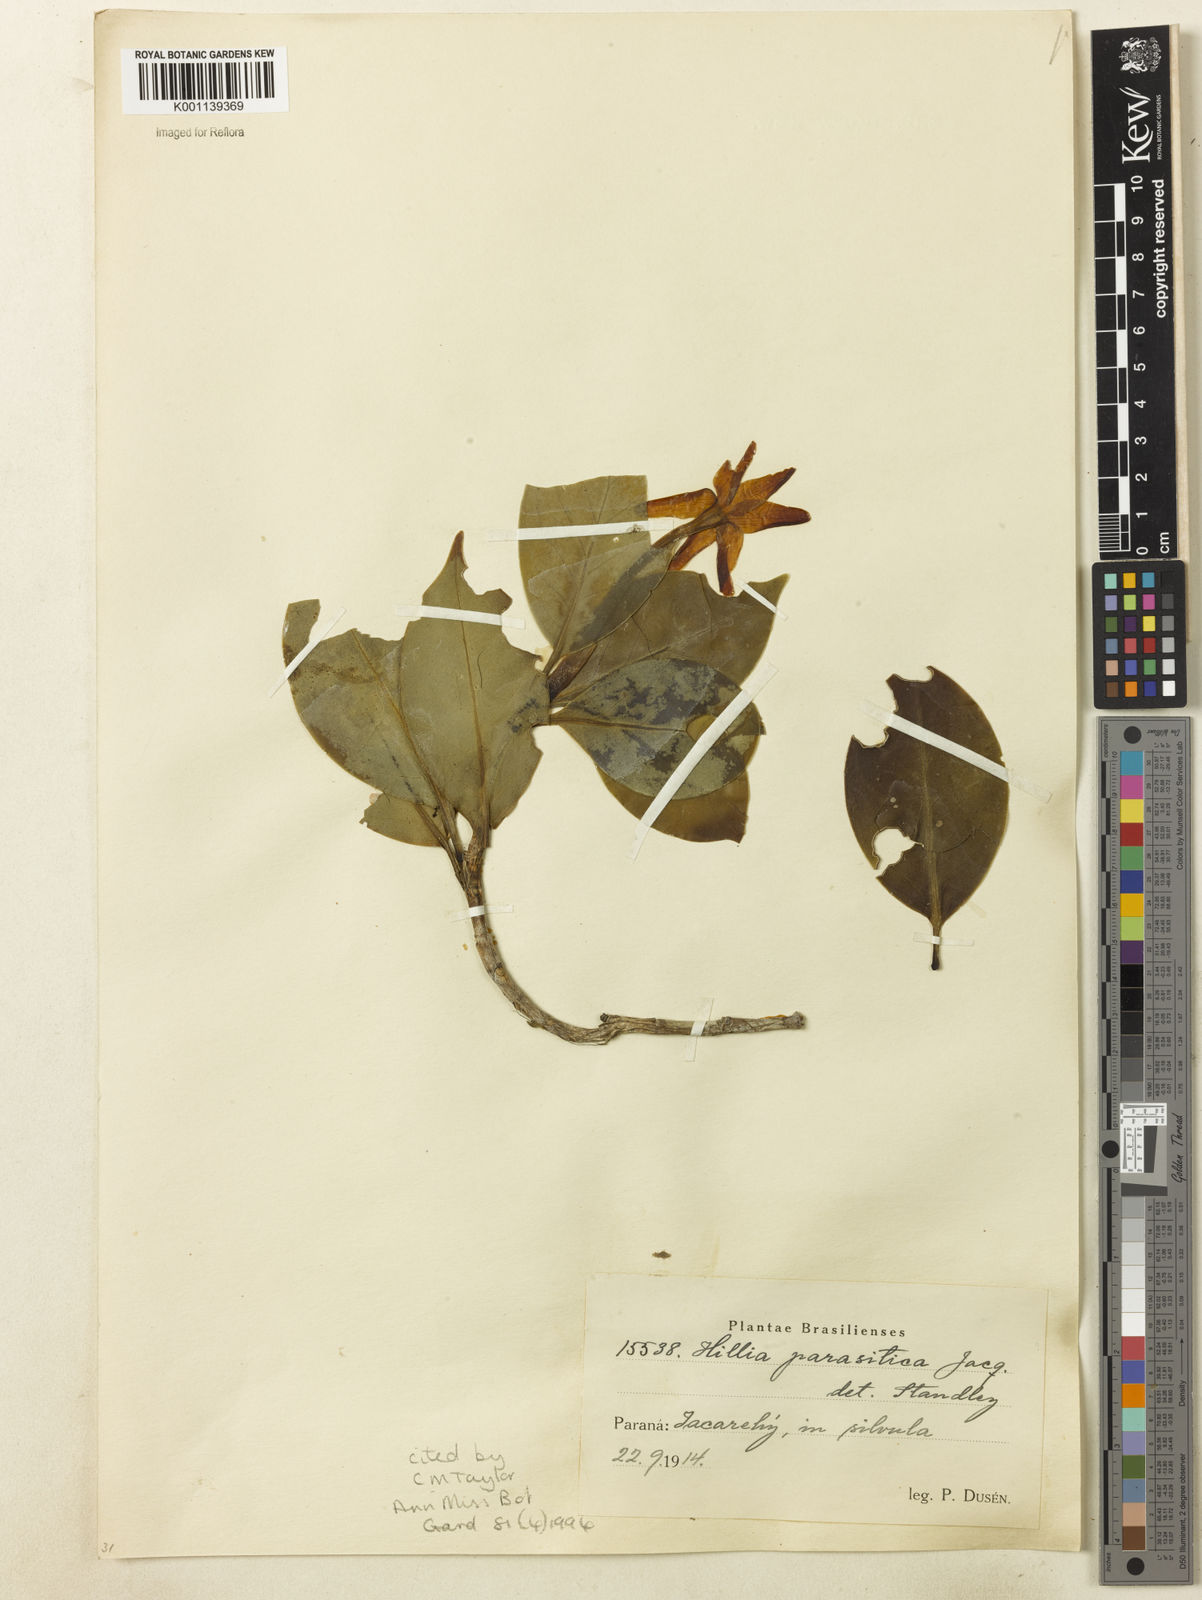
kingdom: Plantae
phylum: Tracheophyta
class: Magnoliopsida
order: Gentianales
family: Rubiaceae
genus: Hillia
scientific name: Hillia parasitica
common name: Morning star
